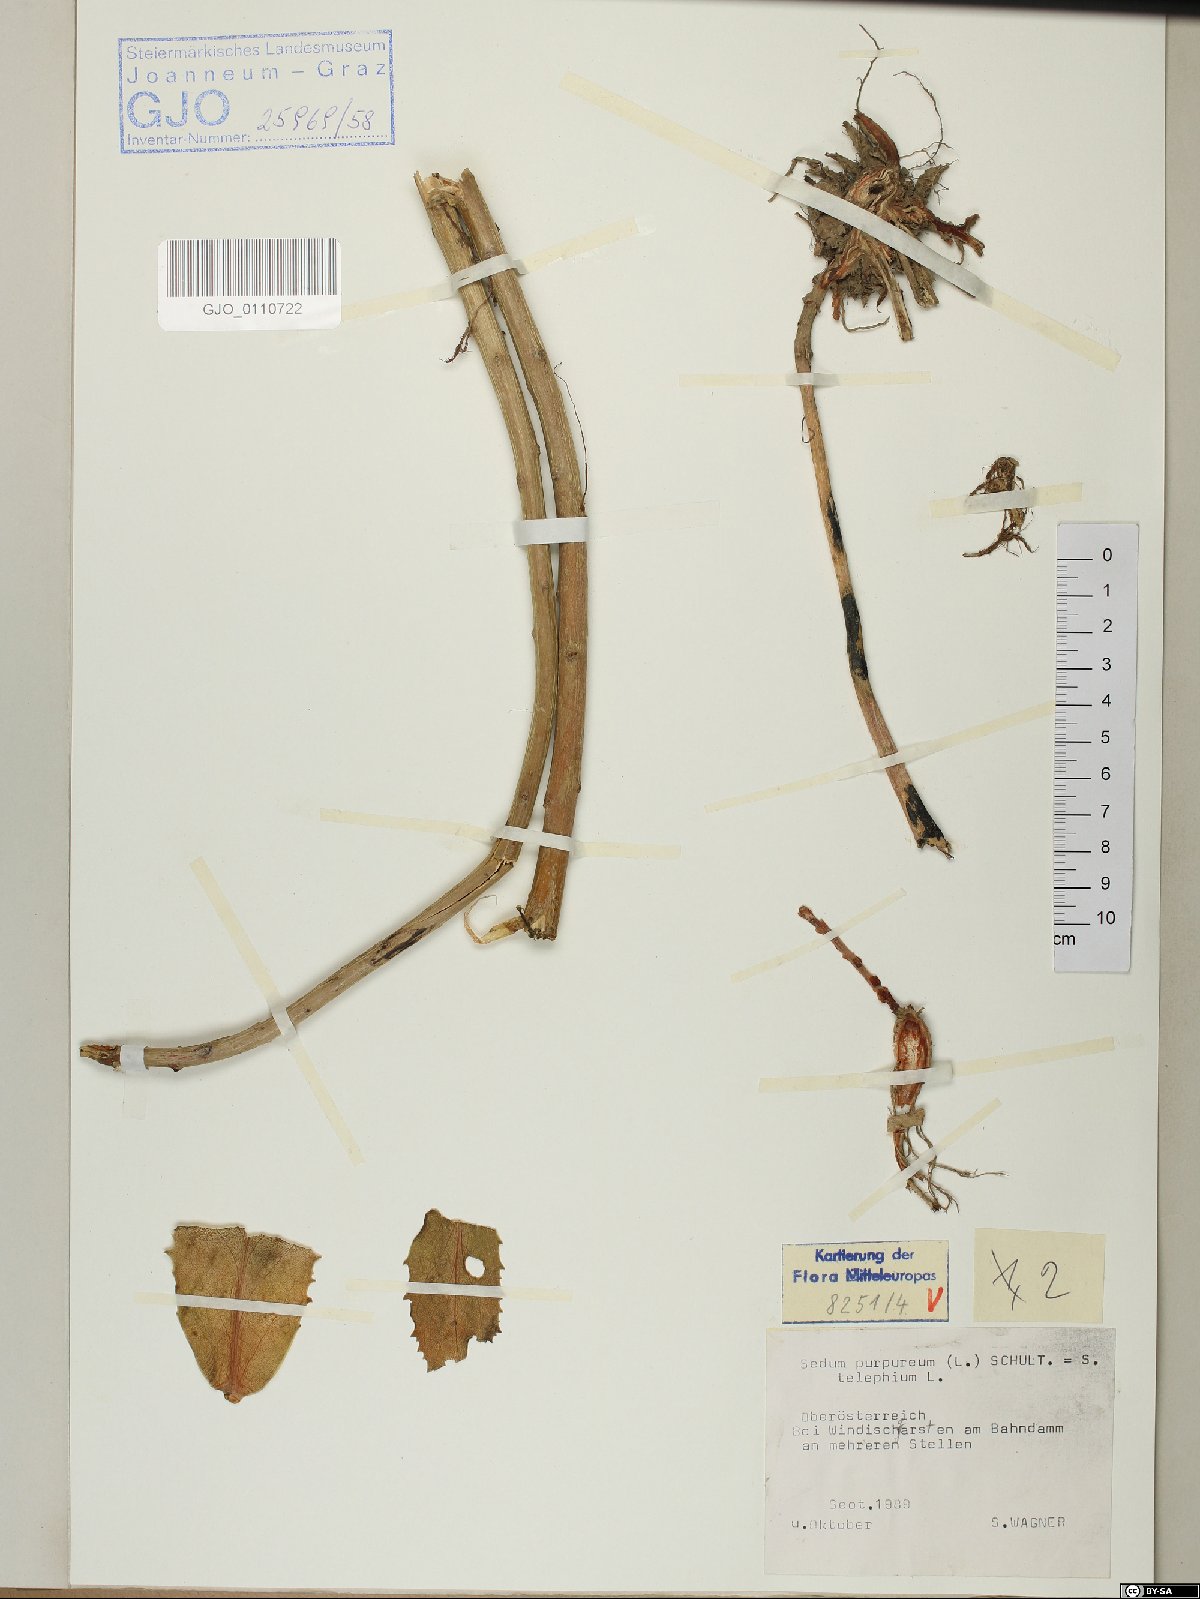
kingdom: Plantae
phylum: Tracheophyta
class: Magnoliopsida
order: Saxifragales
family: Crassulaceae
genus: Hylotelephium
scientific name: Hylotelephium telephium
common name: Live-forever
